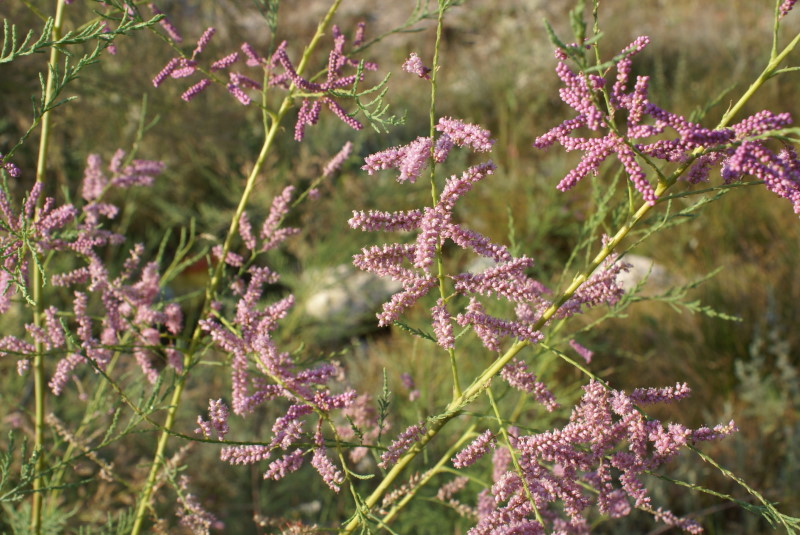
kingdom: Plantae
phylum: Tracheophyta
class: Magnoliopsida
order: Caryophyllales
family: Tamaricaceae
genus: Tamarix
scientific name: Tamarix ramosissima
